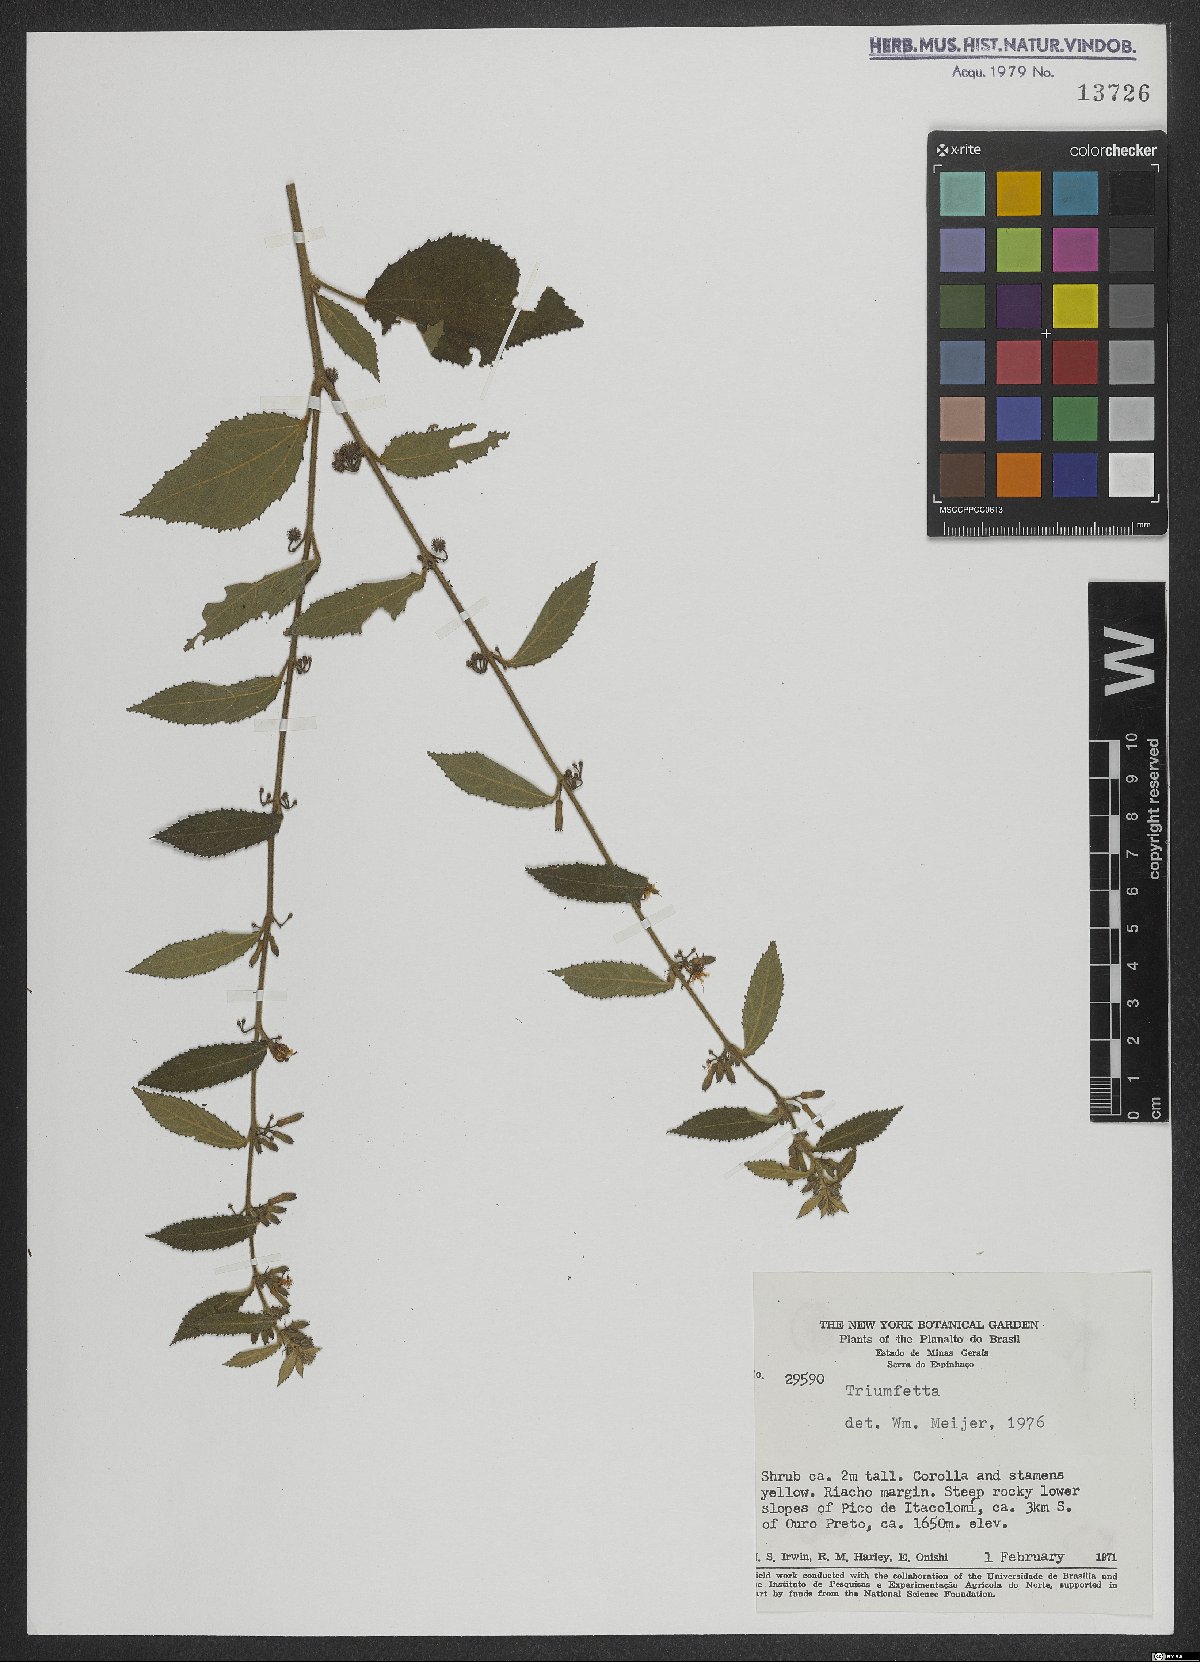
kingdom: Plantae
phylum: Tracheophyta
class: Magnoliopsida
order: Malvales
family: Malvaceae
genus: Triumfetta
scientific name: Triumfetta
